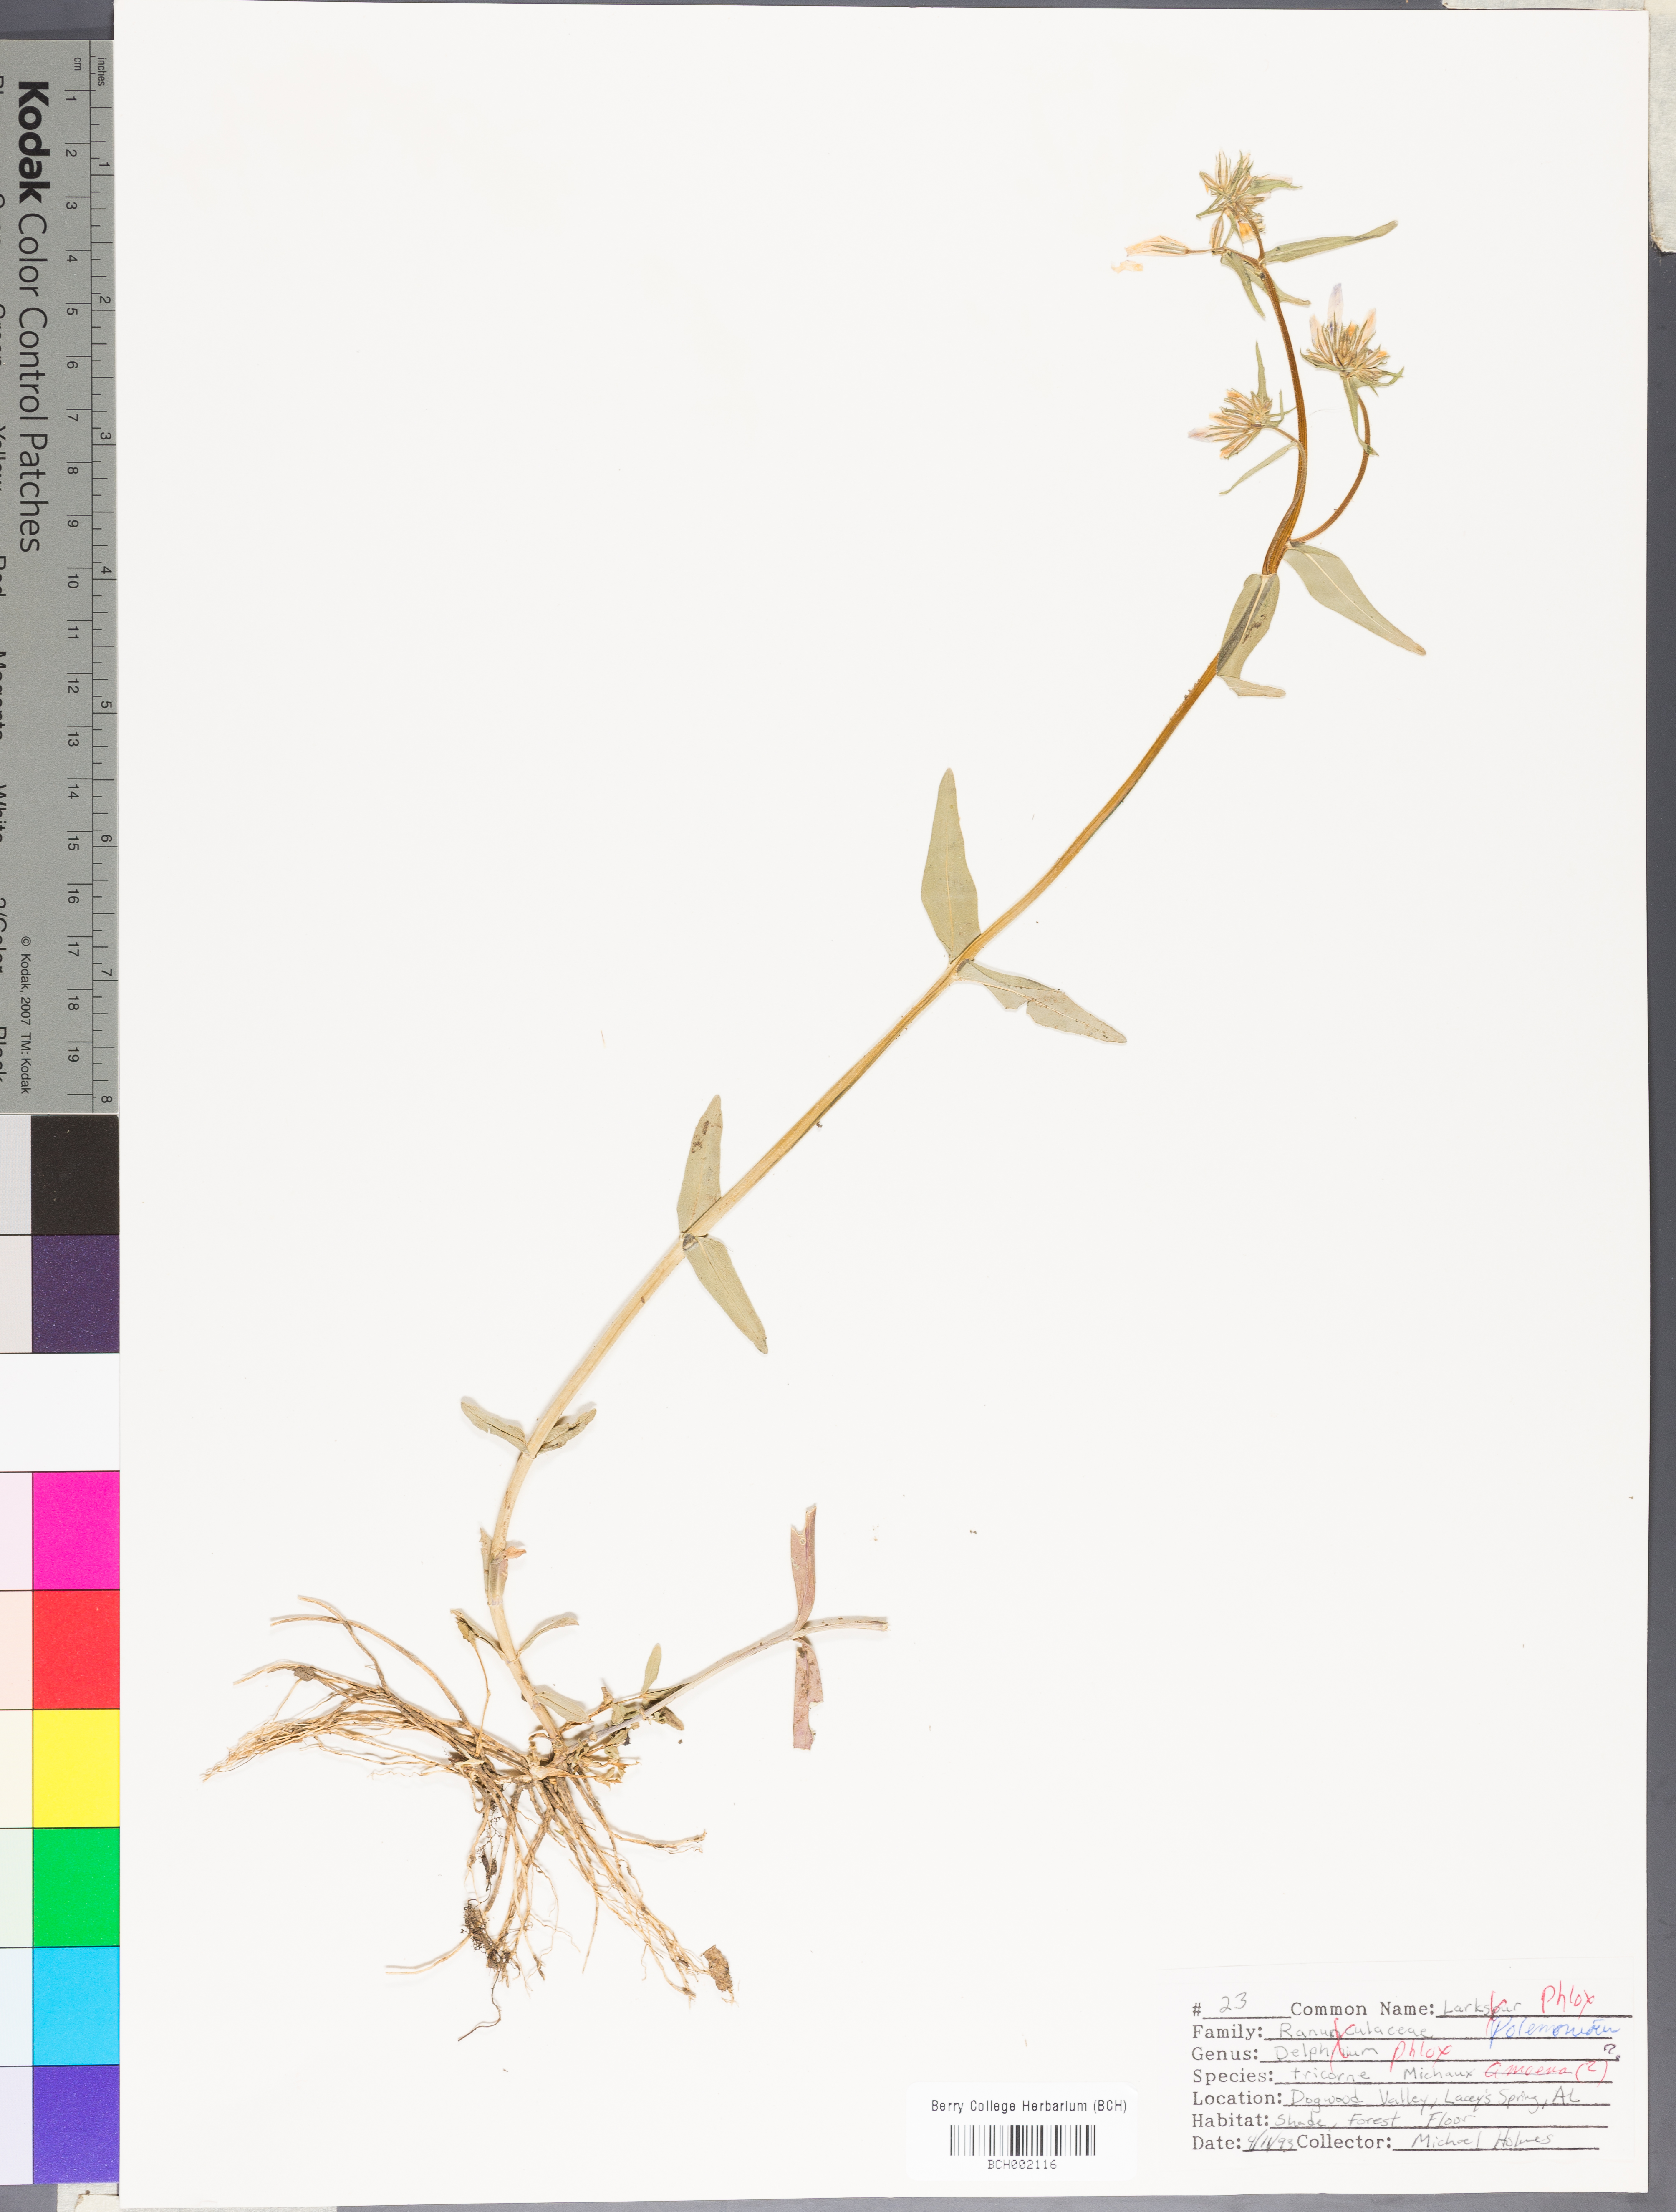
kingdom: Plantae
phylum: Tracheophyta
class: Magnoliopsida
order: Ericales
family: Polemoniaceae
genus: Phlox
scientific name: Phlox amoena
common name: Hairy phlox
